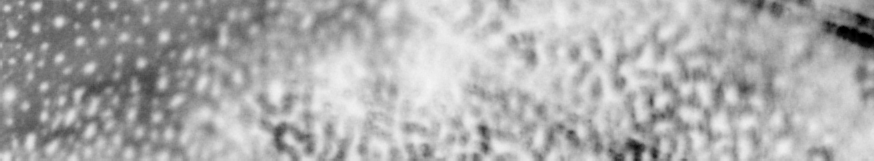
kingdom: Animalia
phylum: Chordata
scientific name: Chordata
